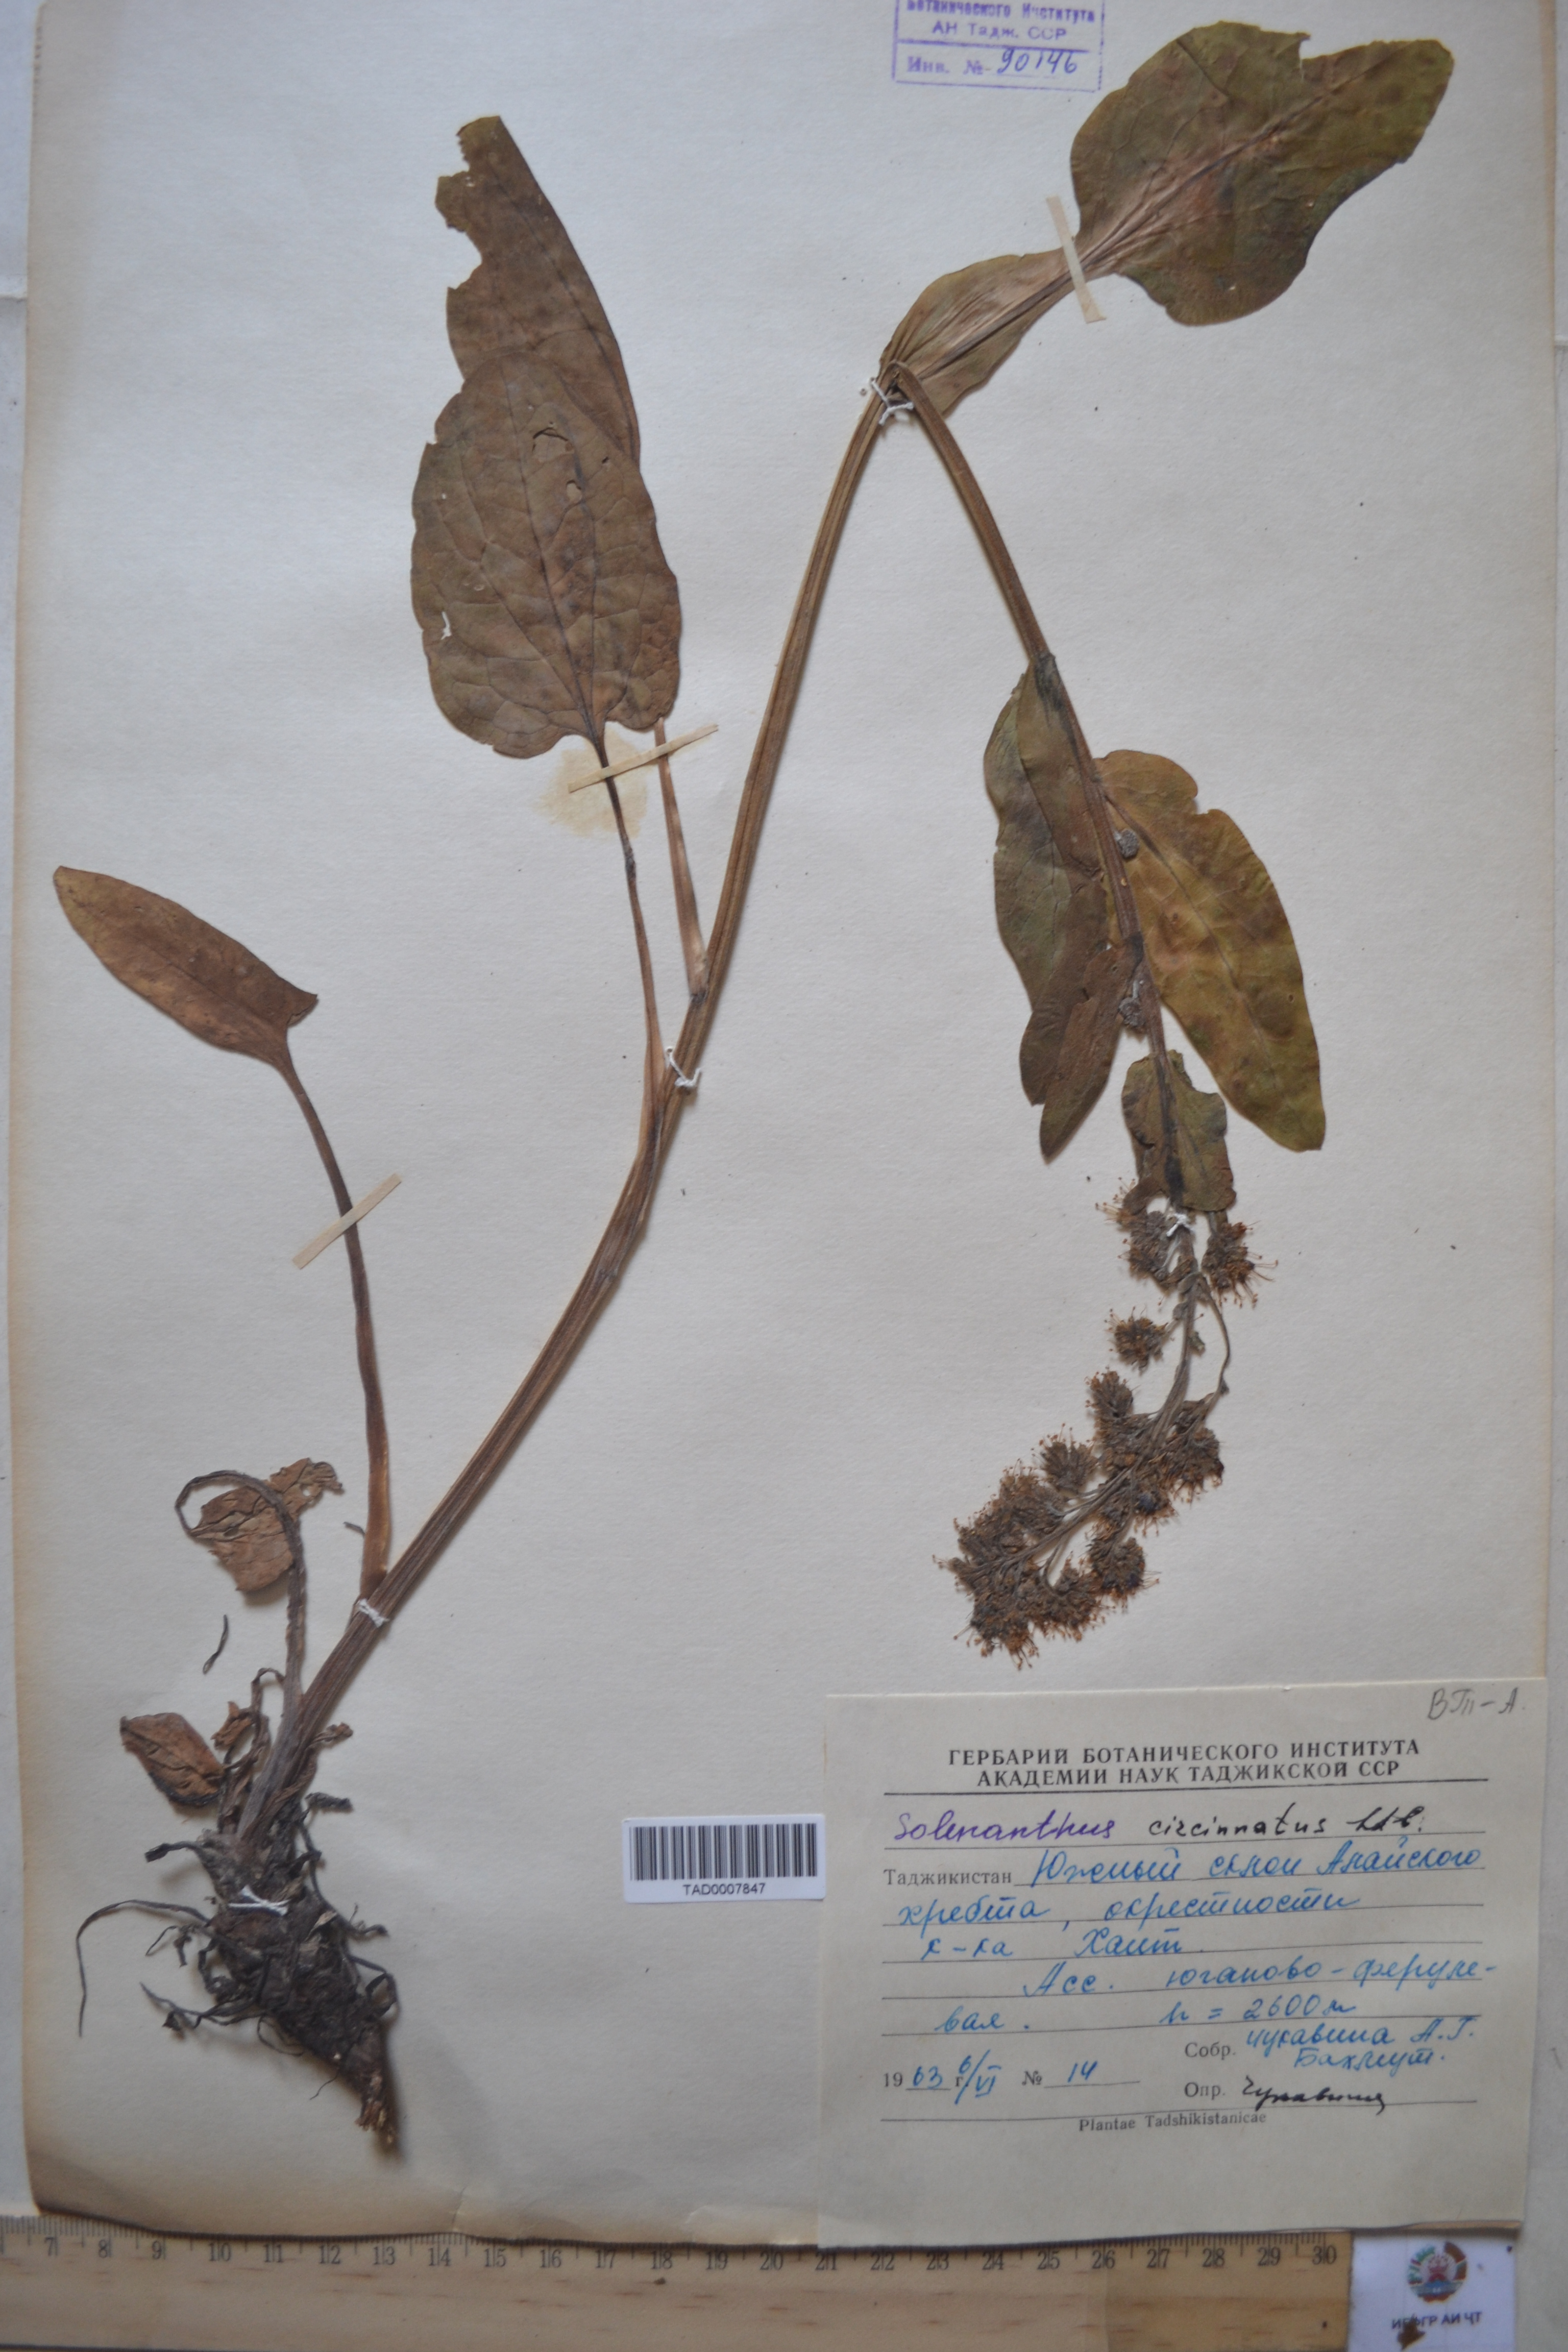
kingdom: Plantae
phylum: Tracheophyta
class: Magnoliopsida
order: Boraginales
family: Boraginaceae
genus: Solenanthus
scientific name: Solenanthus circinnatus
